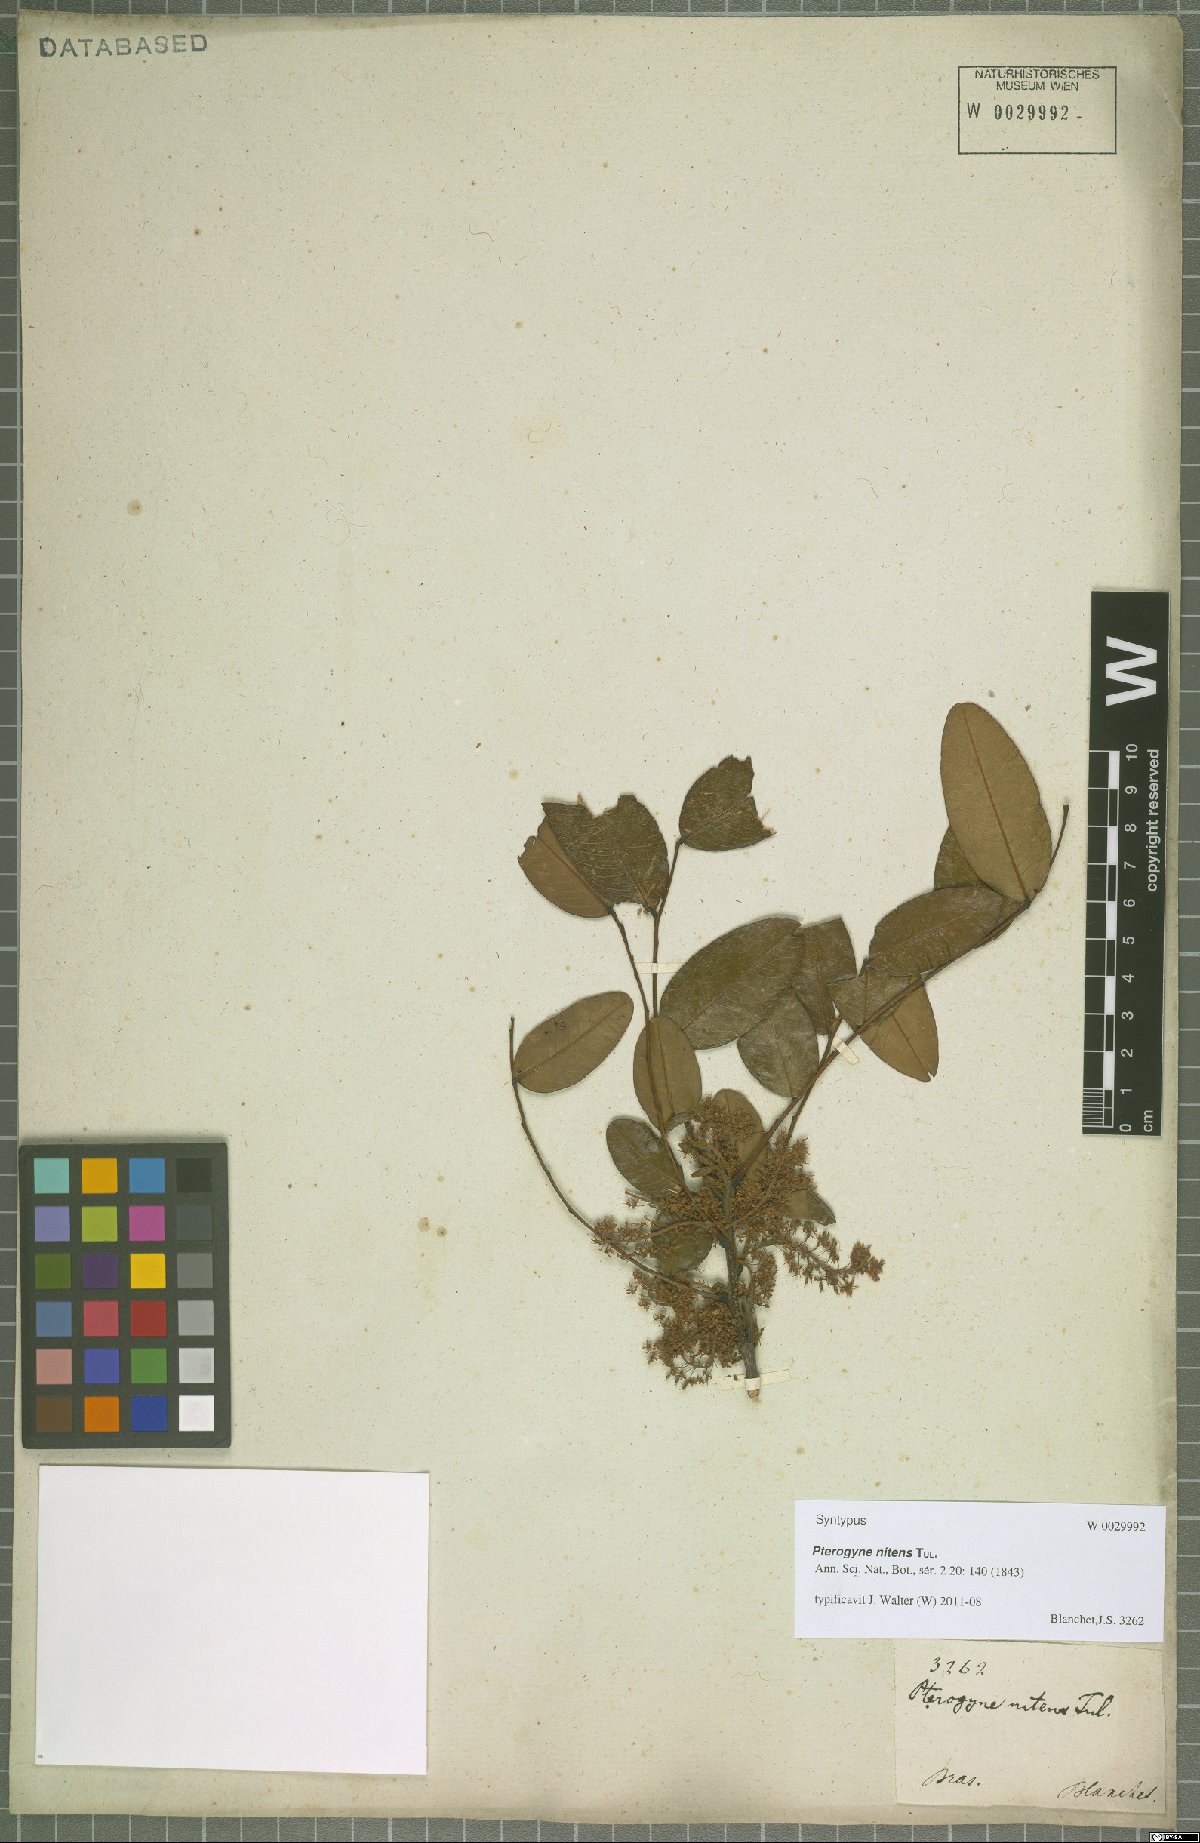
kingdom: Plantae
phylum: Tracheophyta
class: Magnoliopsida
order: Fabales
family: Fabaceae
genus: Pterogyne
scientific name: Pterogyne nitens
